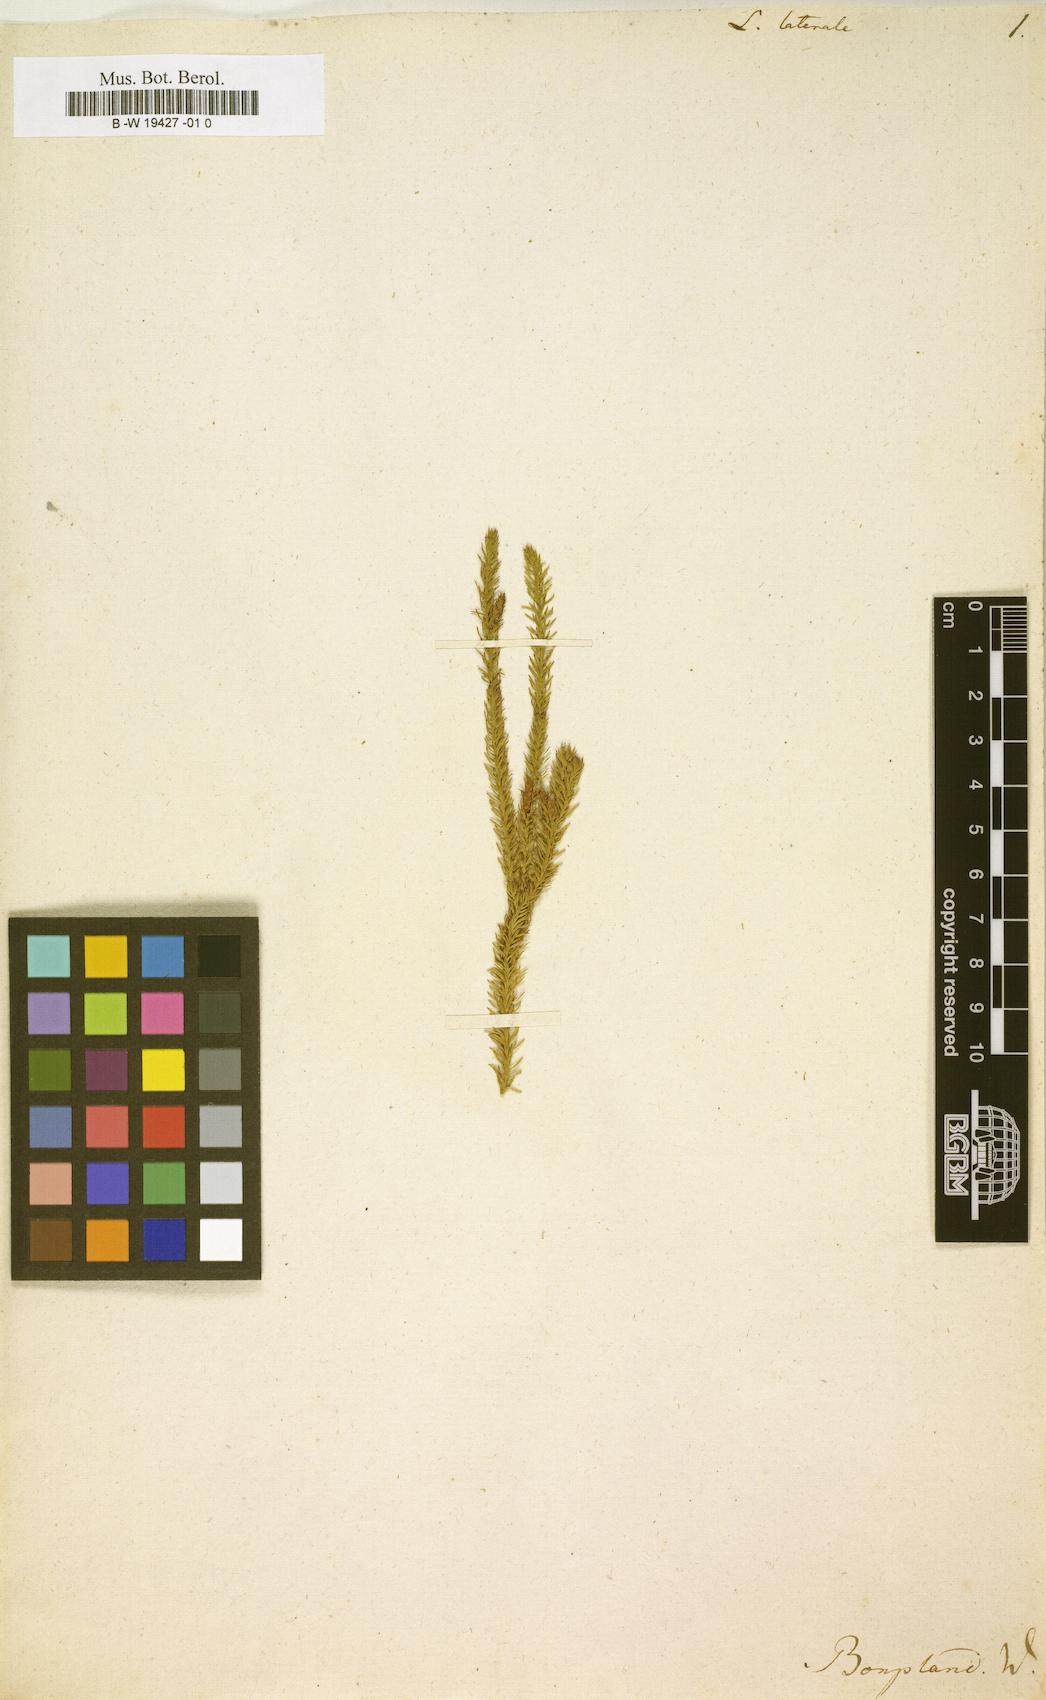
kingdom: Plantae
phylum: Tracheophyta
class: Lycopodiopsida
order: Lycopodiales
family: Lycopodiaceae
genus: Lateristachys
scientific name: Lateristachys lateralis
